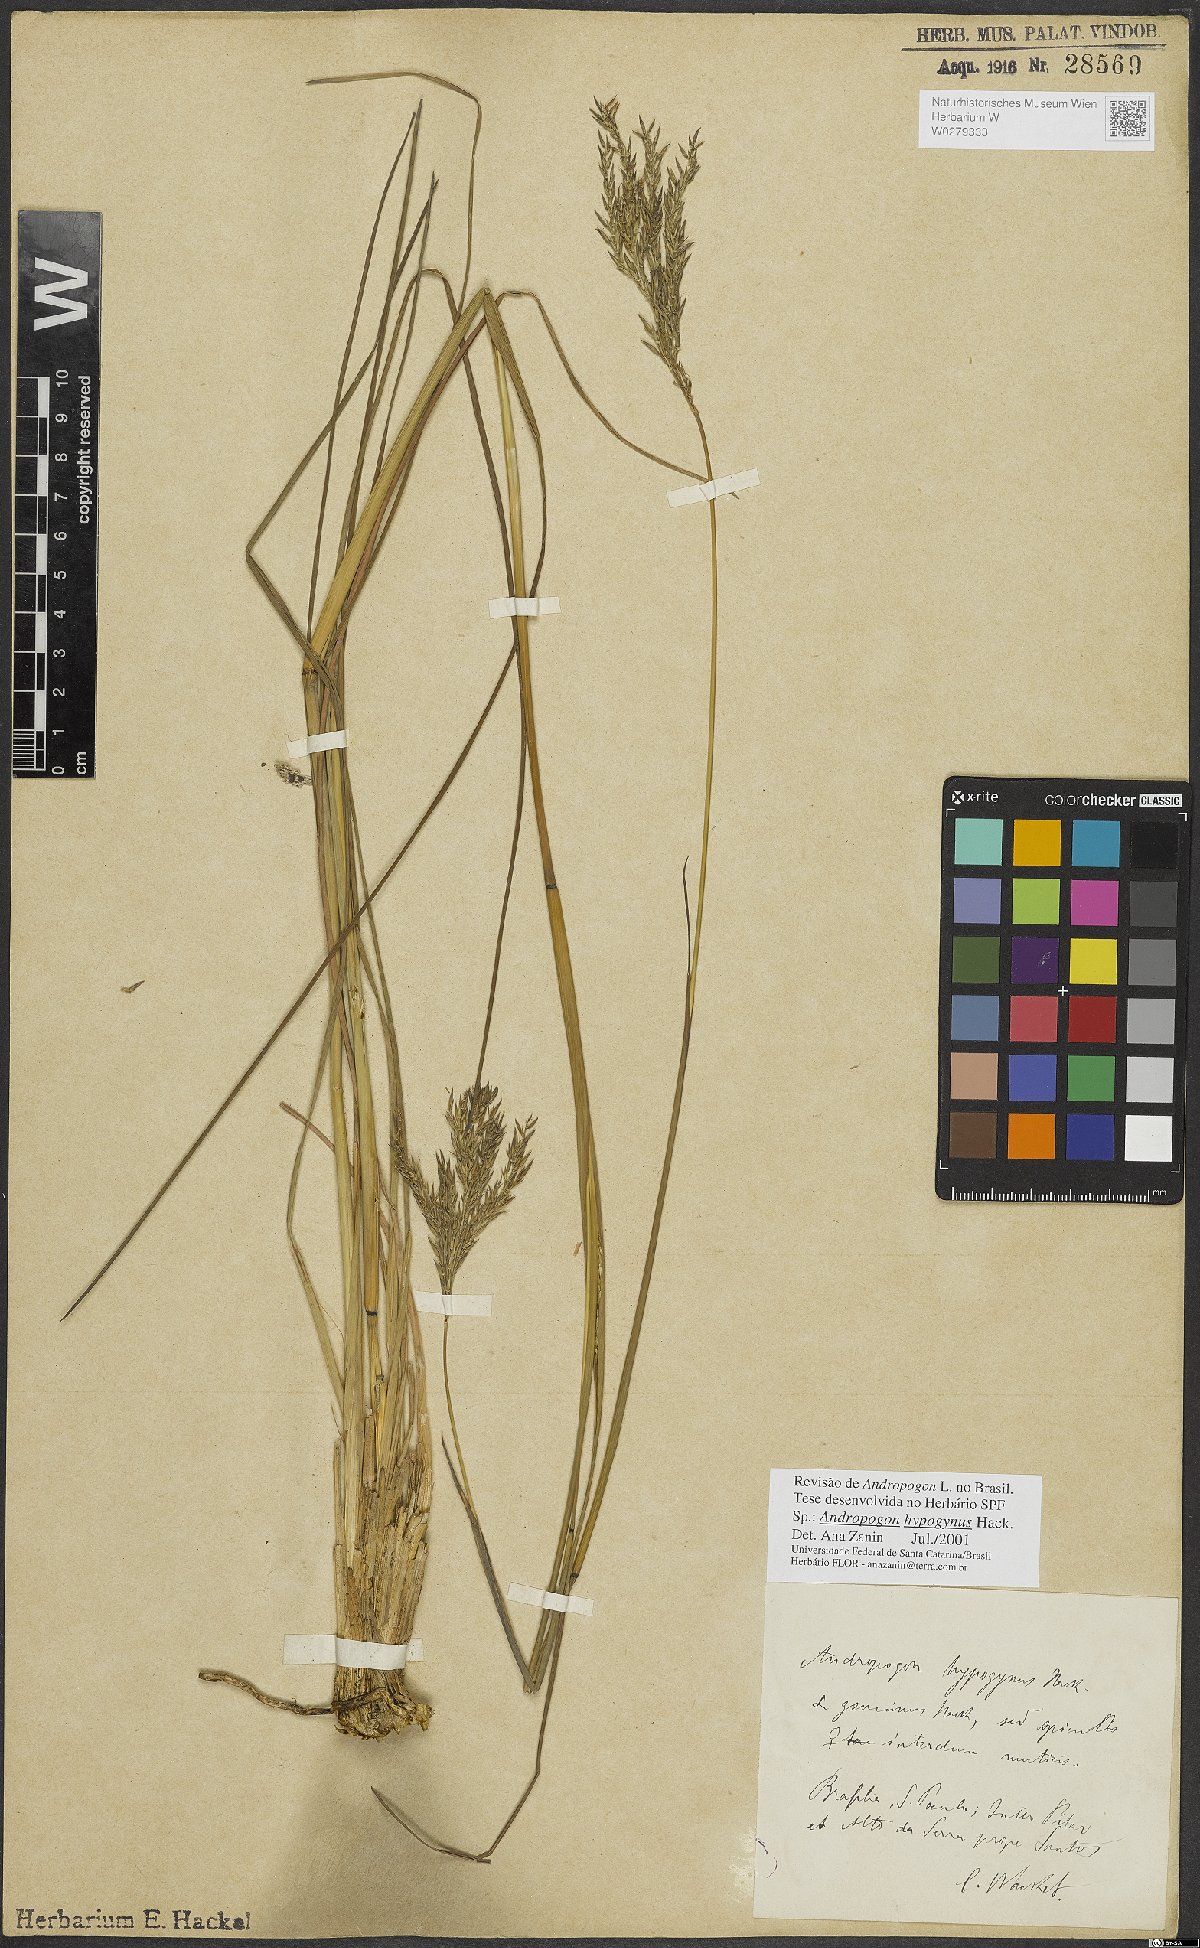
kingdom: Plantae
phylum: Tracheophyta
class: Liliopsida
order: Poales
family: Poaceae
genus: Andropogon
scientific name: Andropogon hypogynus
